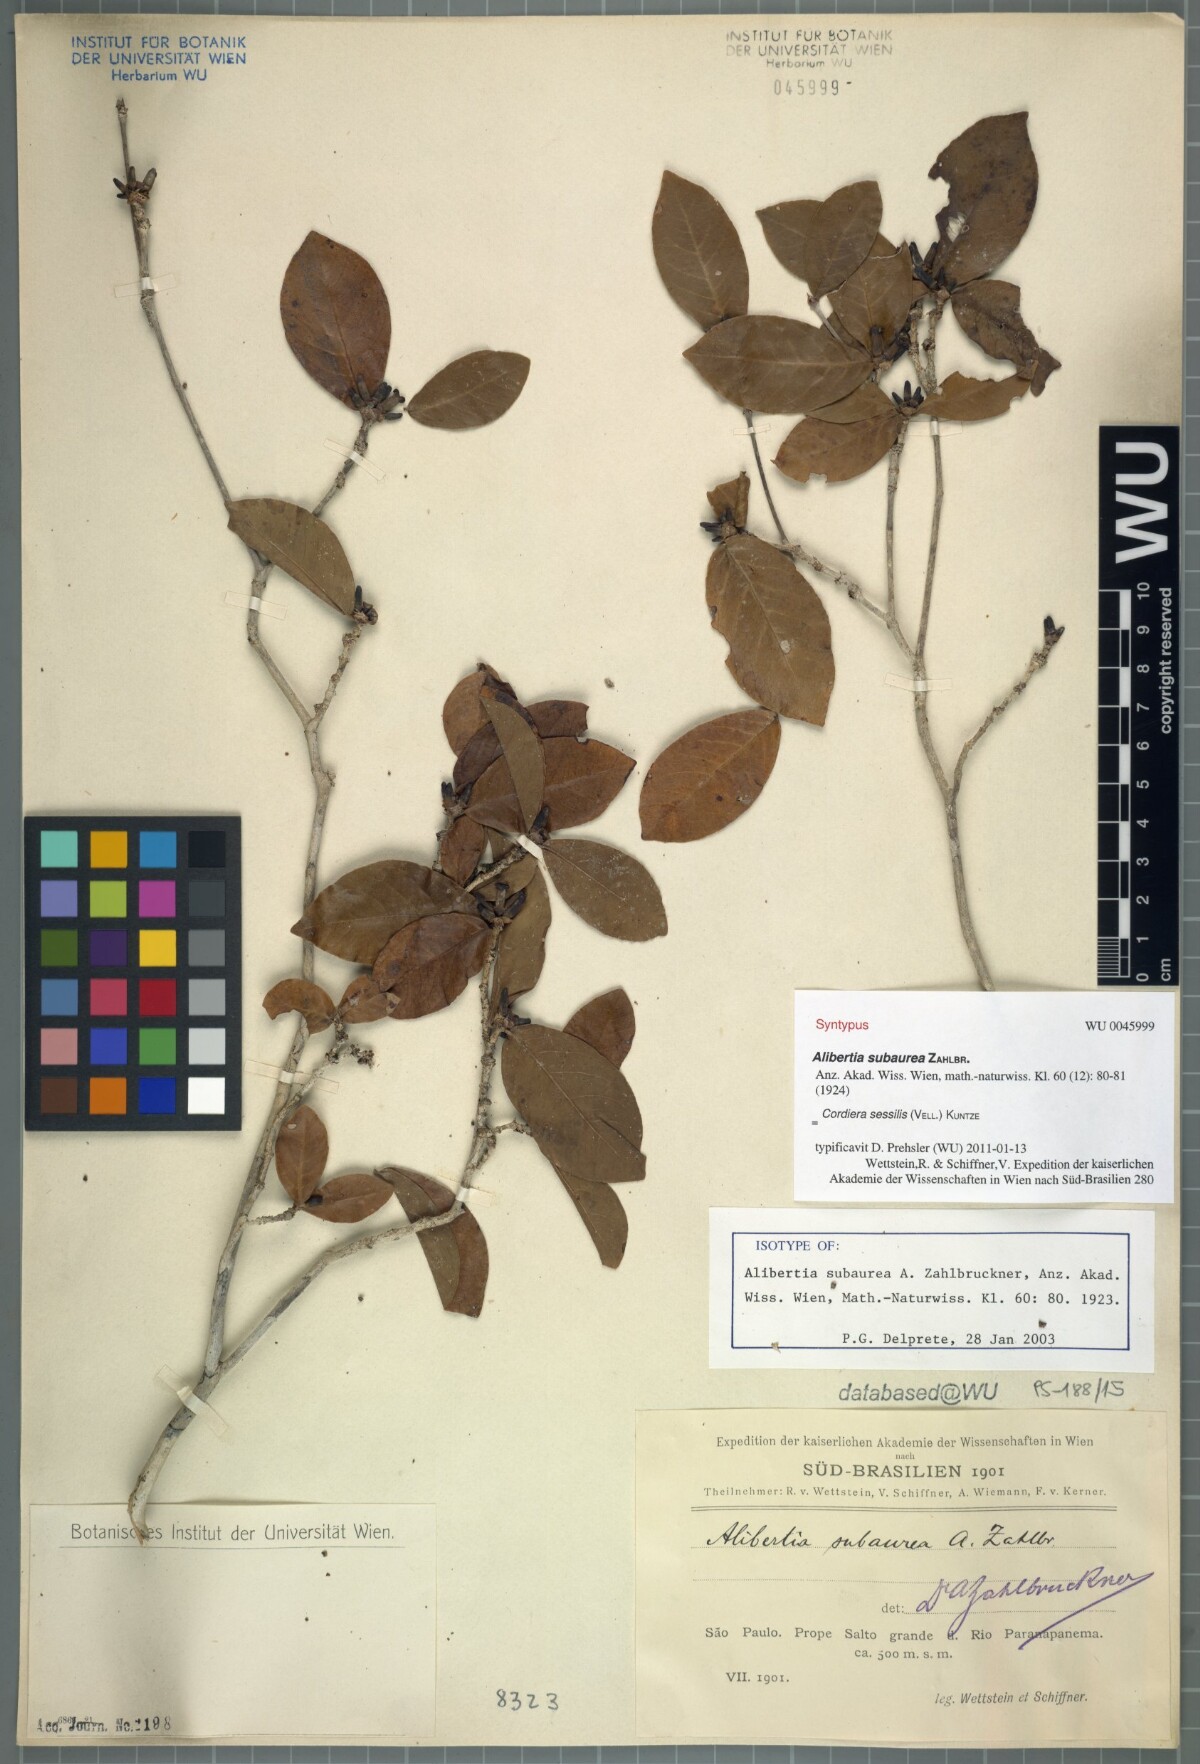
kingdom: Plantae
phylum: Tracheophyta
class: Magnoliopsida
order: Gentianales
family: Rubiaceae
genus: Cordiera
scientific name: Cordiera subaurea
